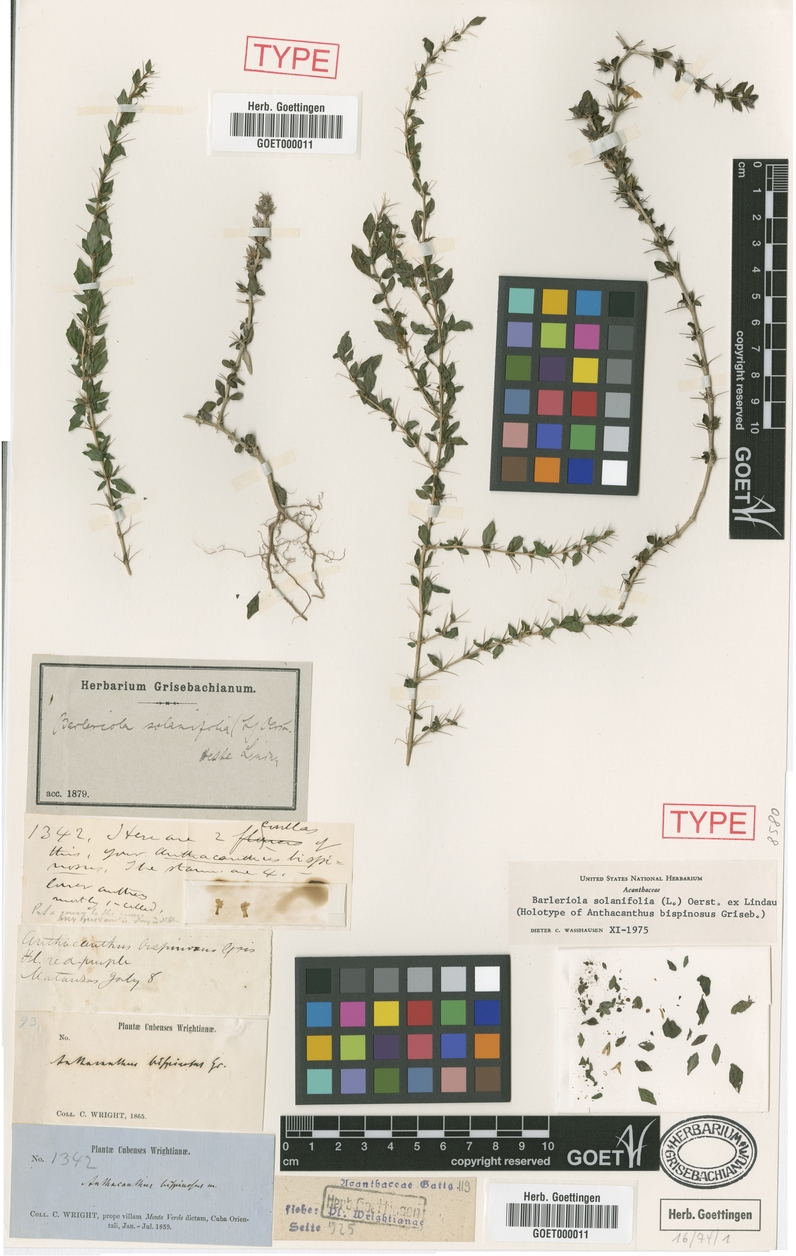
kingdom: Plantae
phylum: Tracheophyta
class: Magnoliopsida
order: Lamiales
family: Acanthaceae
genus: Barleriola
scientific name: Barleriola solanifolia
